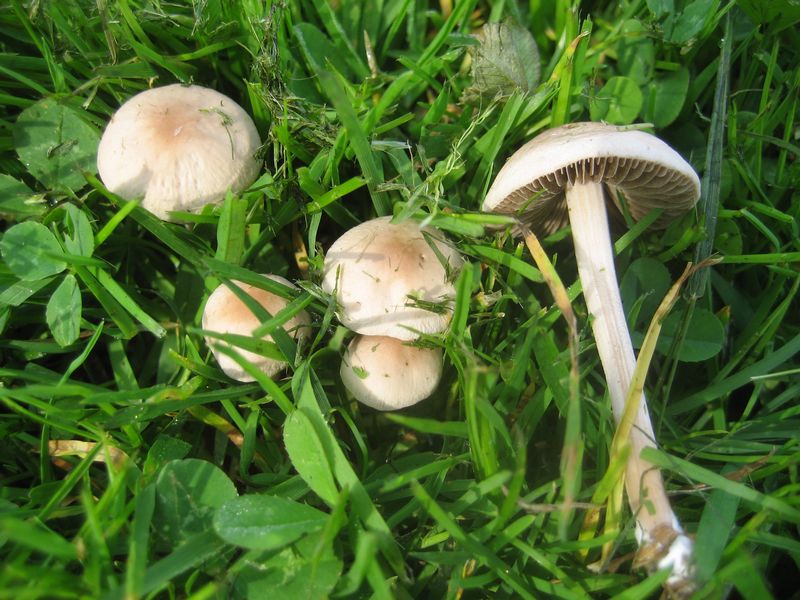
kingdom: Fungi
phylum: Basidiomycota
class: Agaricomycetes
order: Agaricales
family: Bolbitiaceae
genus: Panaeolina
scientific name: Panaeolina foenisecii
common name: høslætsvamp
